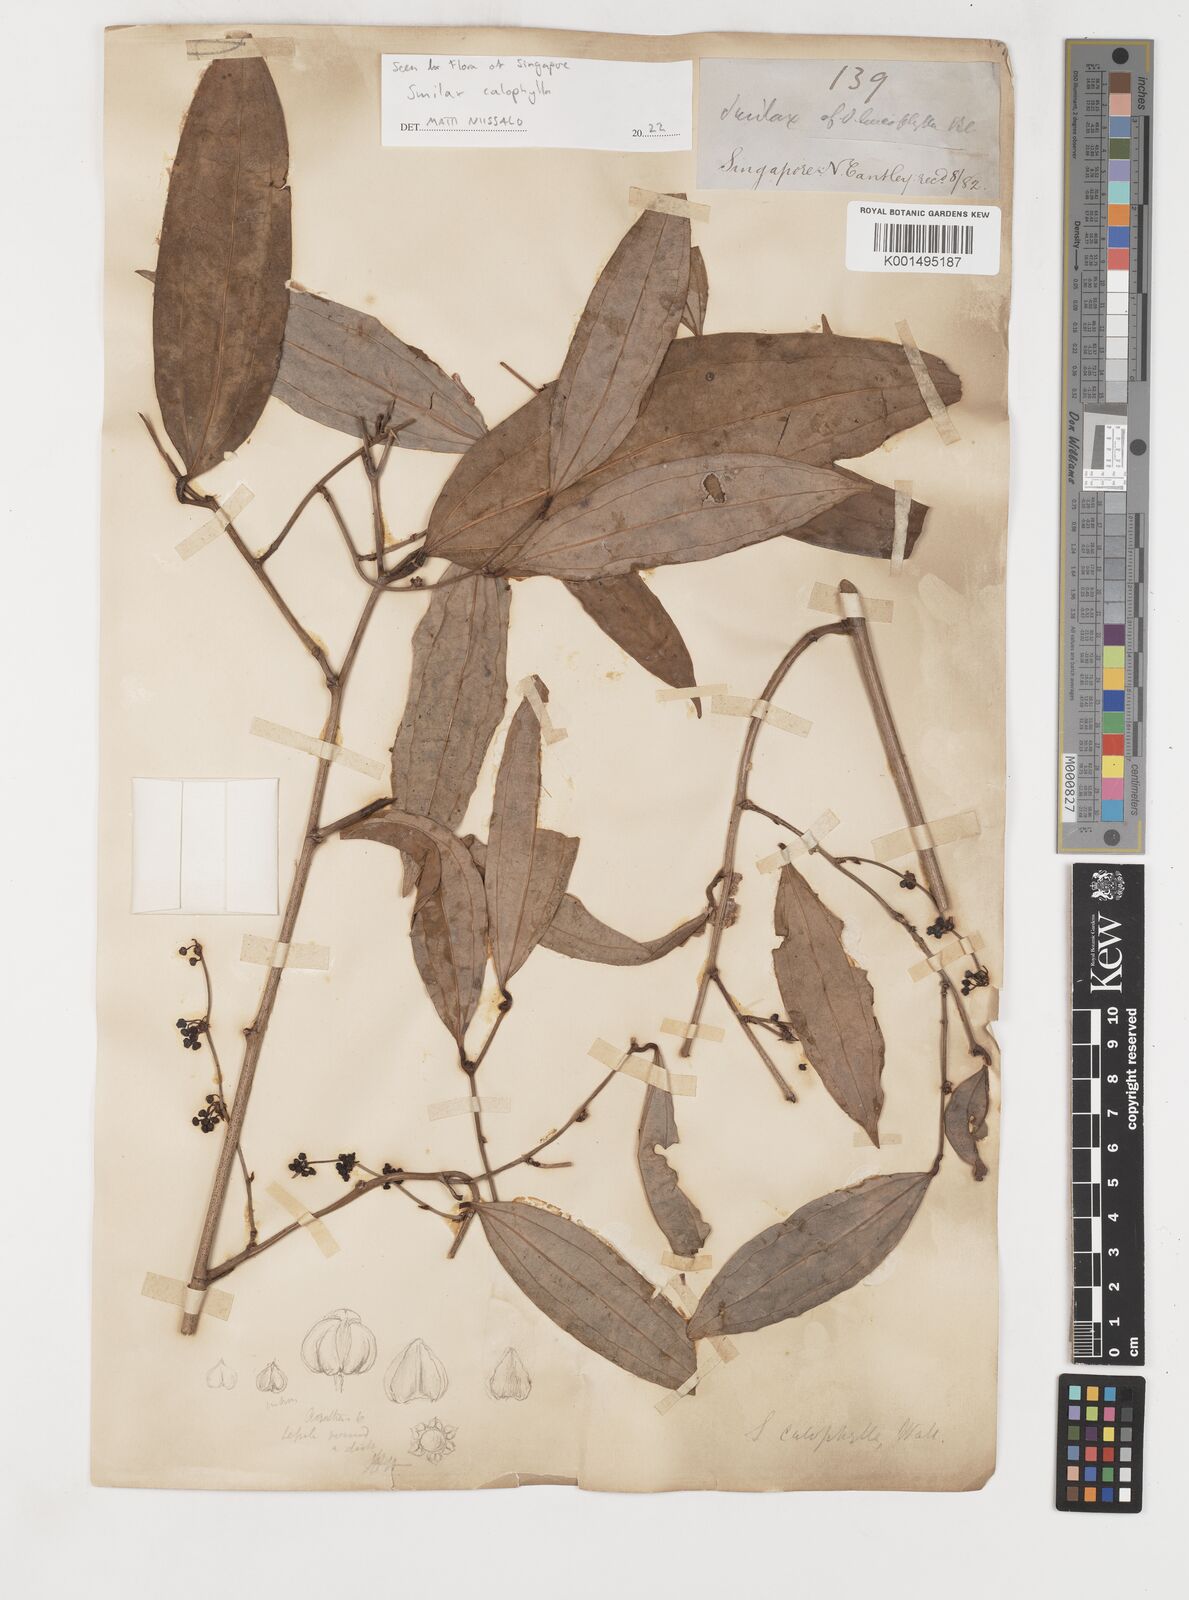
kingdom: Plantae
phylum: Tracheophyta
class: Liliopsida
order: Liliales
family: Smilacaceae
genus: Smilax
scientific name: Smilax calophylla
